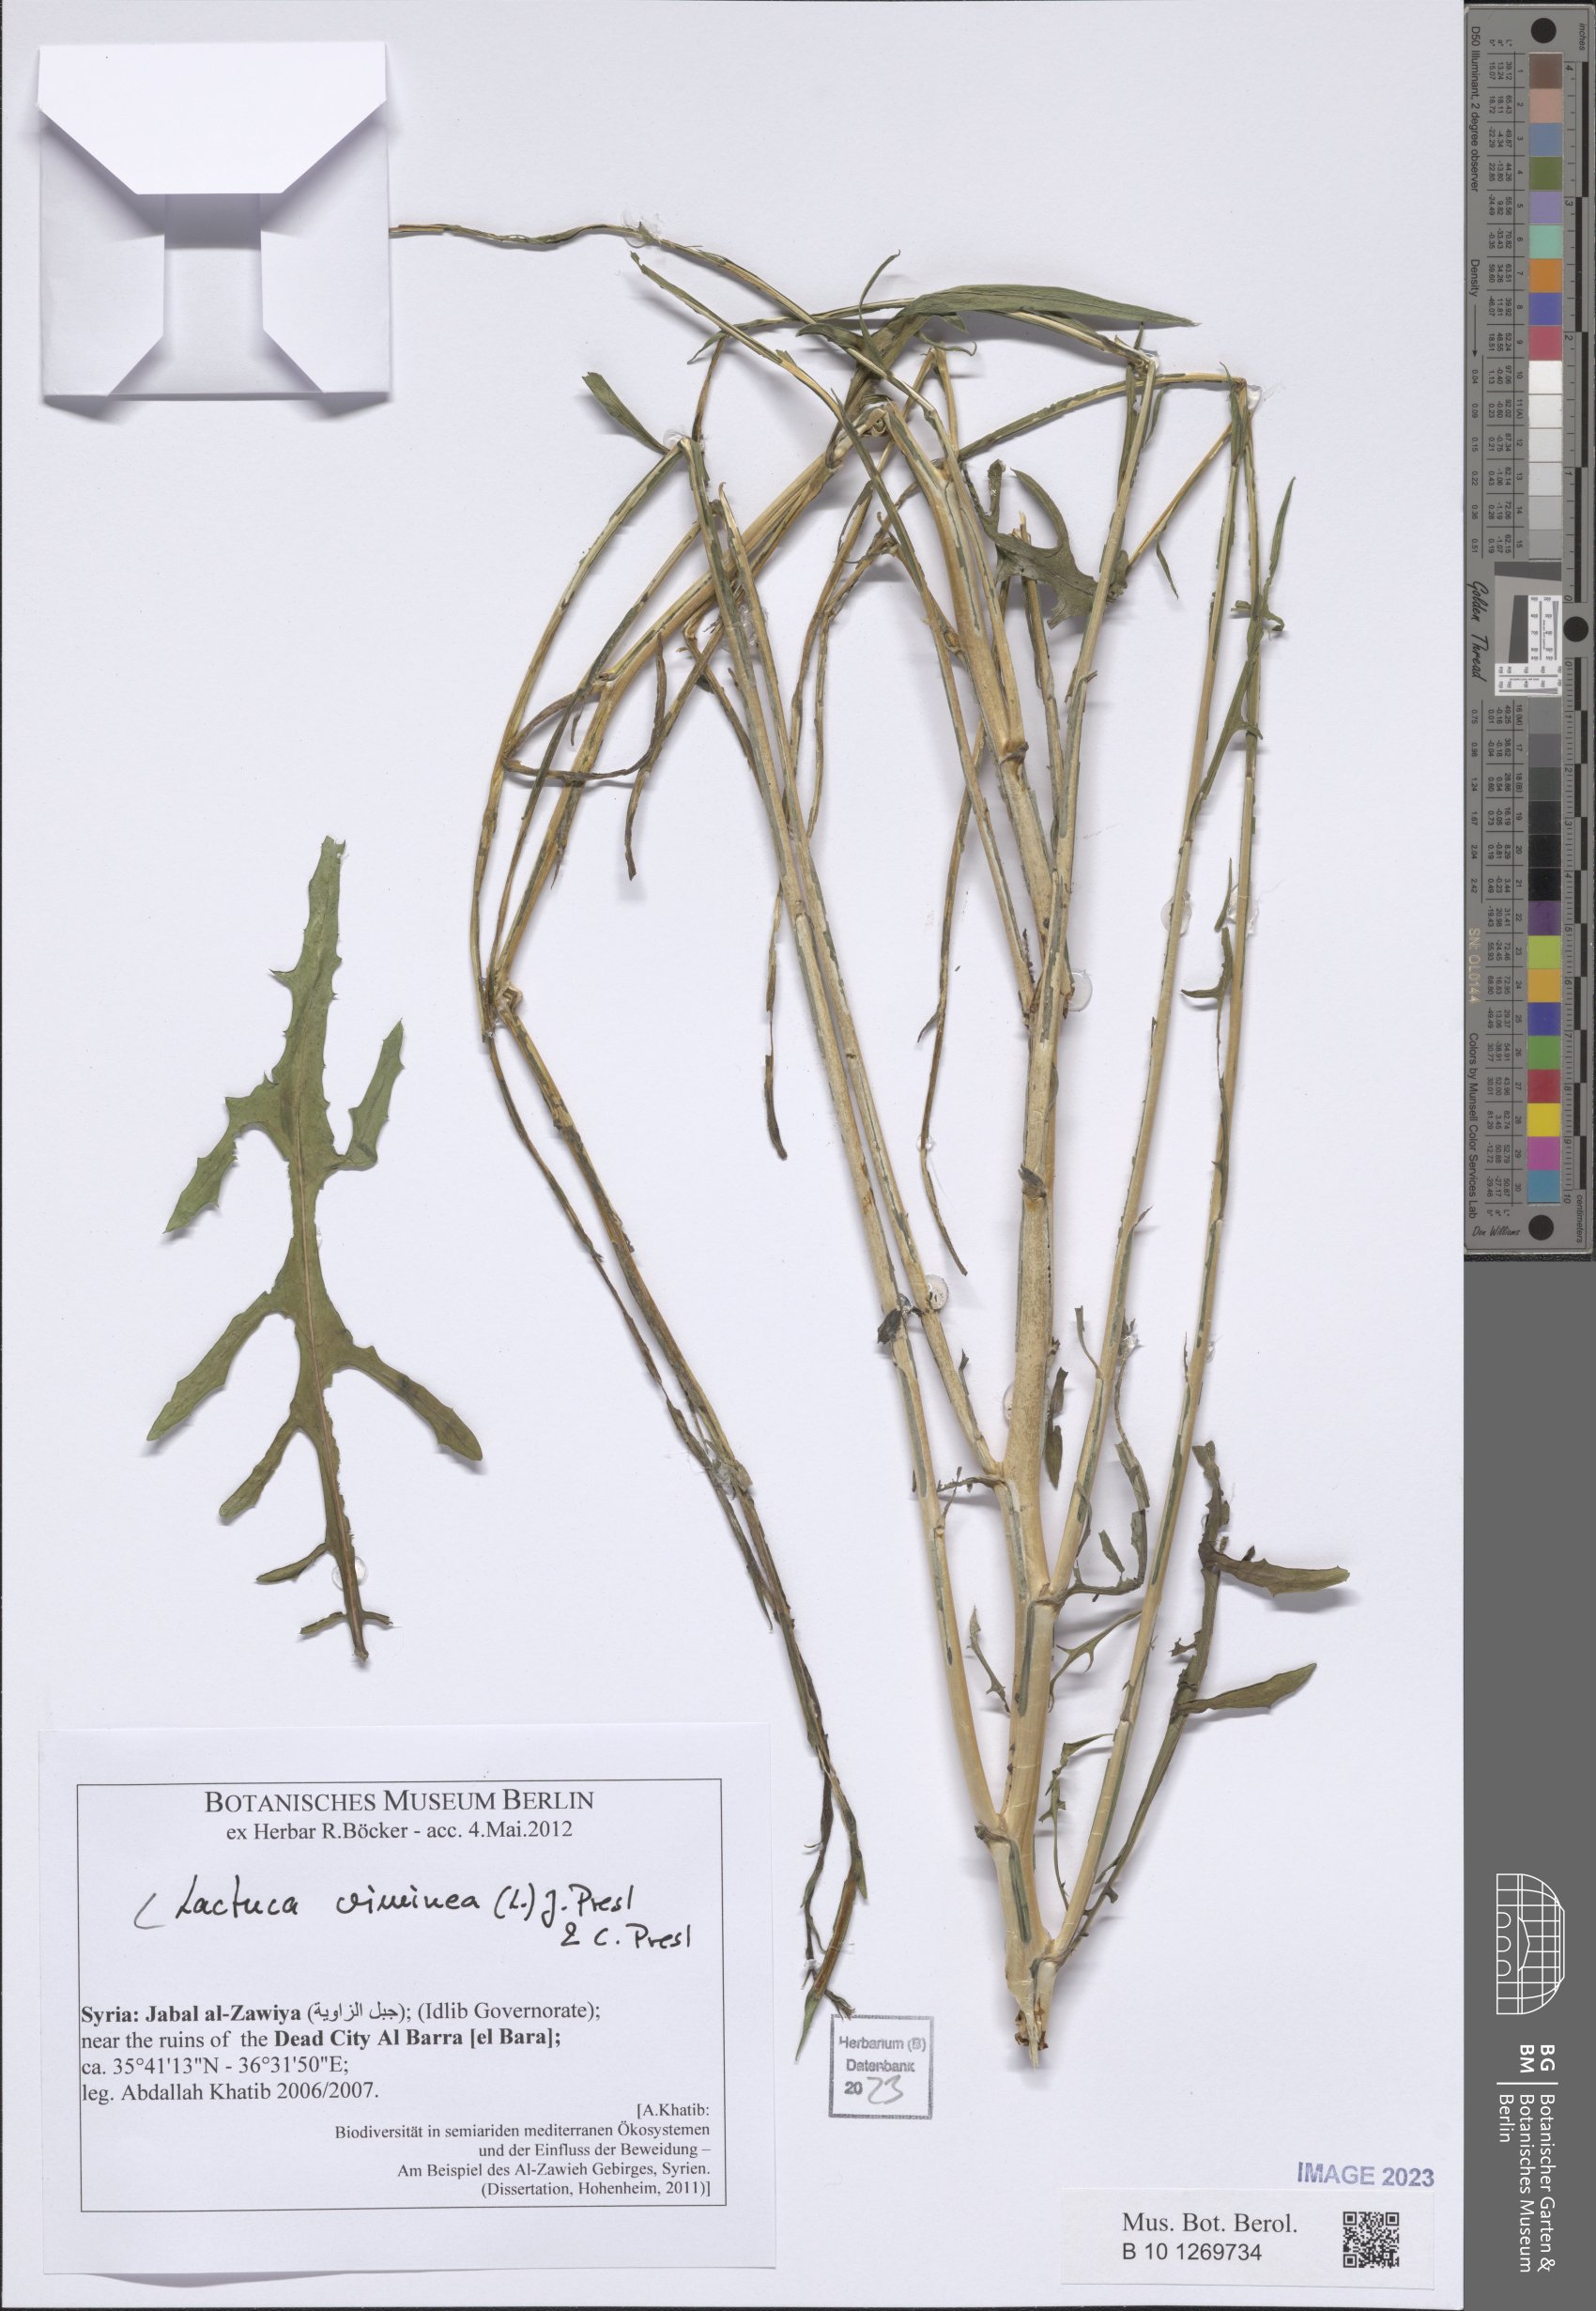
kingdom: Plantae
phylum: Tracheophyta
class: Magnoliopsida
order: Asterales
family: Asteraceae
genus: Lactuca
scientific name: Lactuca viminea
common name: Pliant lettuce
